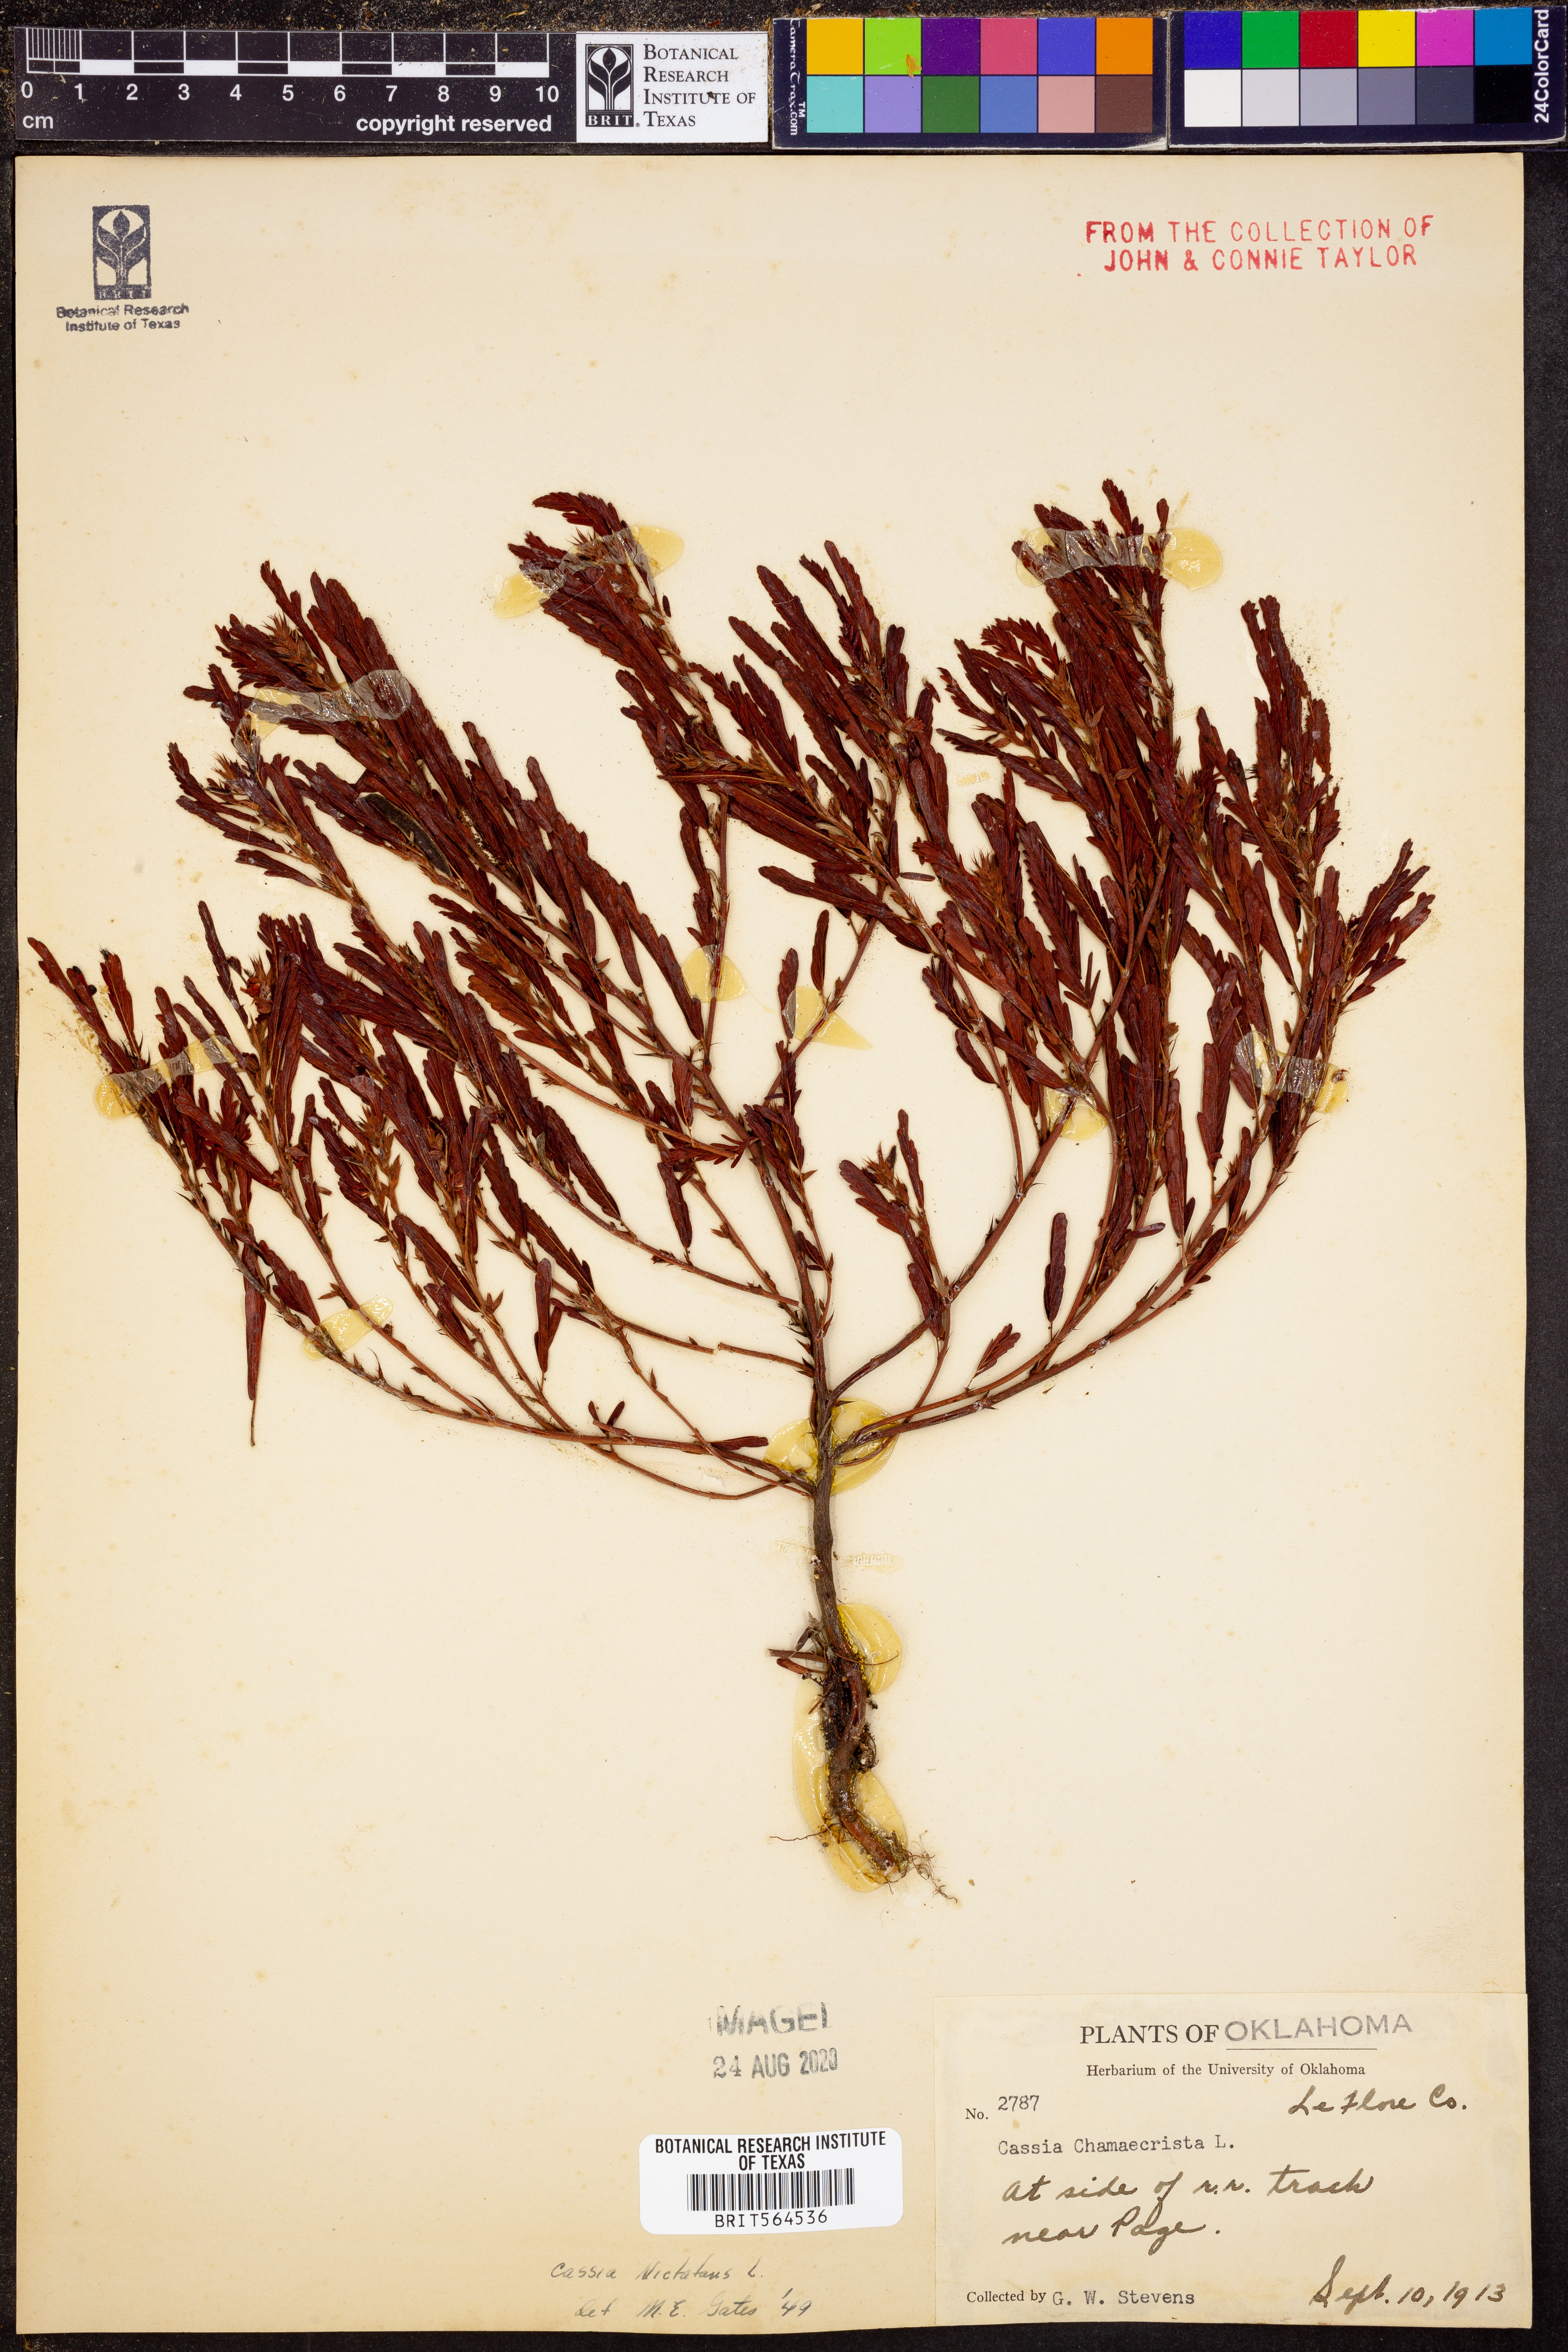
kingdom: Plantae
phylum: Tracheophyta
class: Magnoliopsida
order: Fabales
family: Fabaceae
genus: Chamaecrista
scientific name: Chamaecrista nictitans
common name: Sensitive cassia
